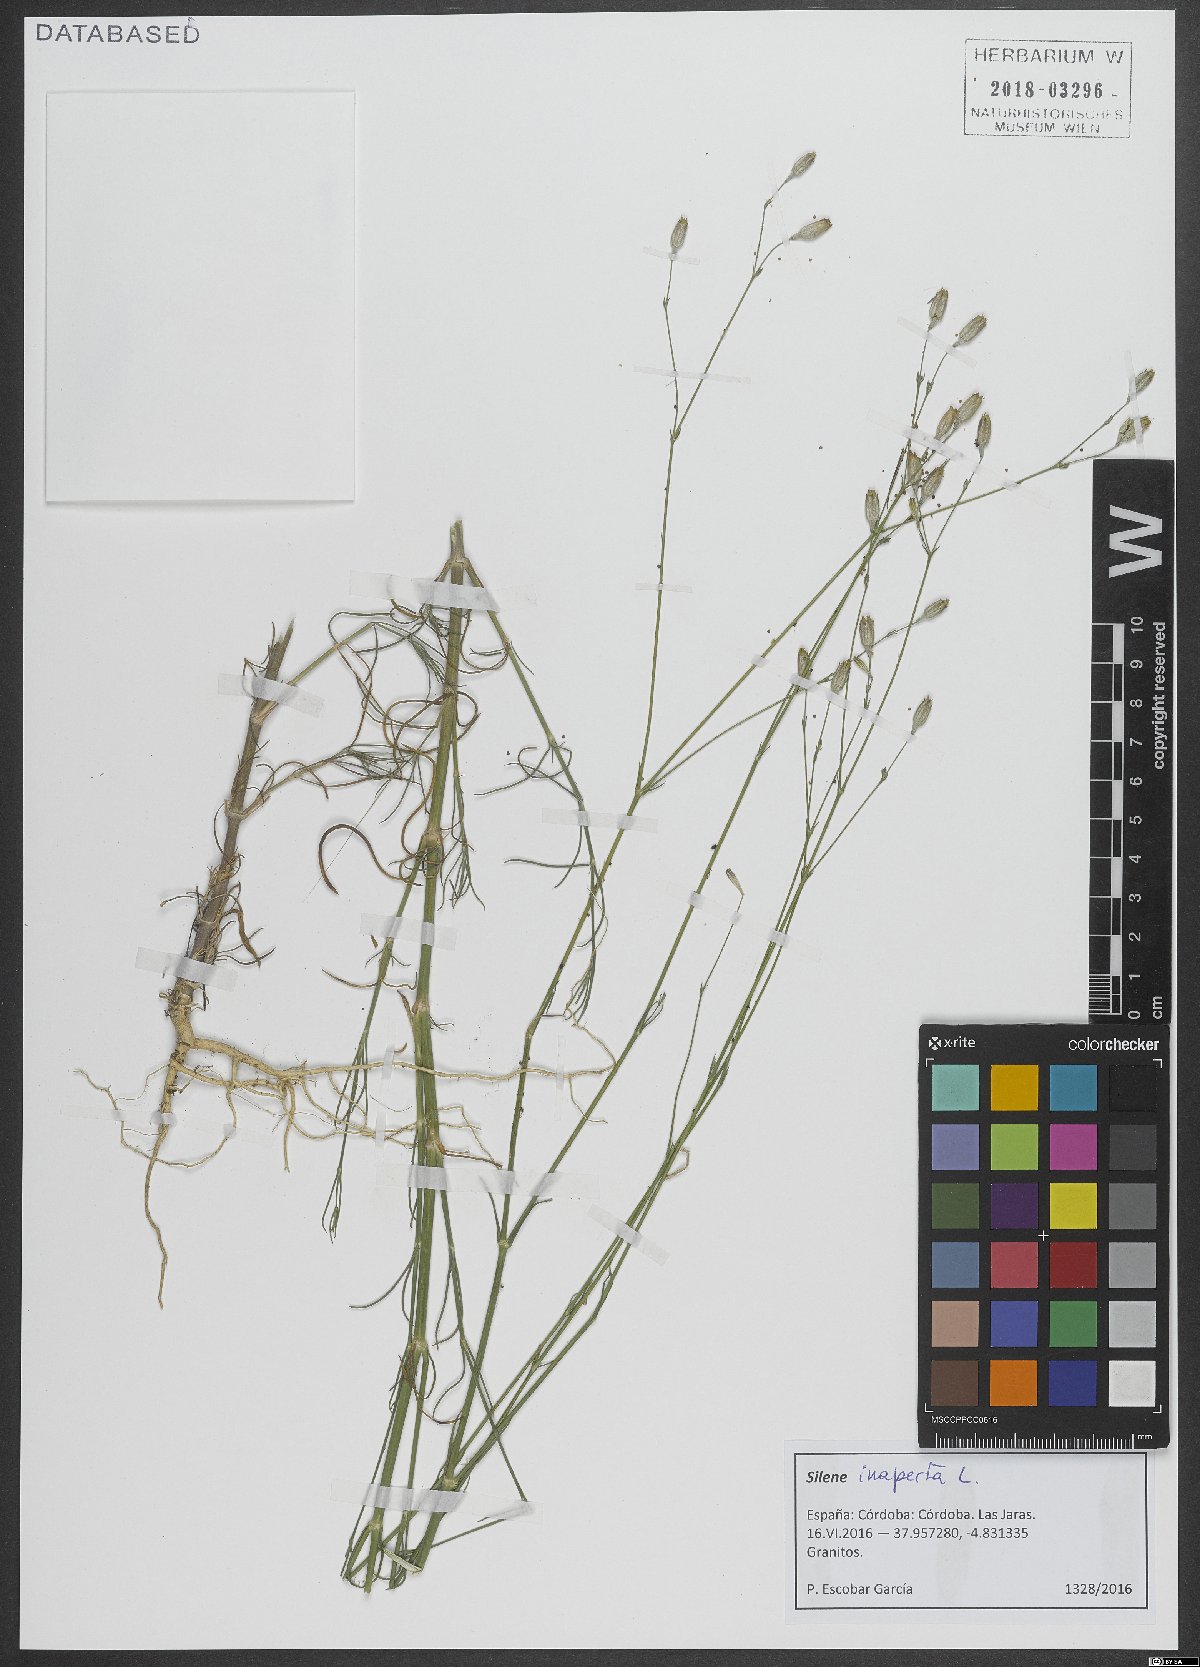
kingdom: Plantae
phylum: Tracheophyta
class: Magnoliopsida
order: Caryophyllales
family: Caryophyllaceae
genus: Silene
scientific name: Silene inaperta
